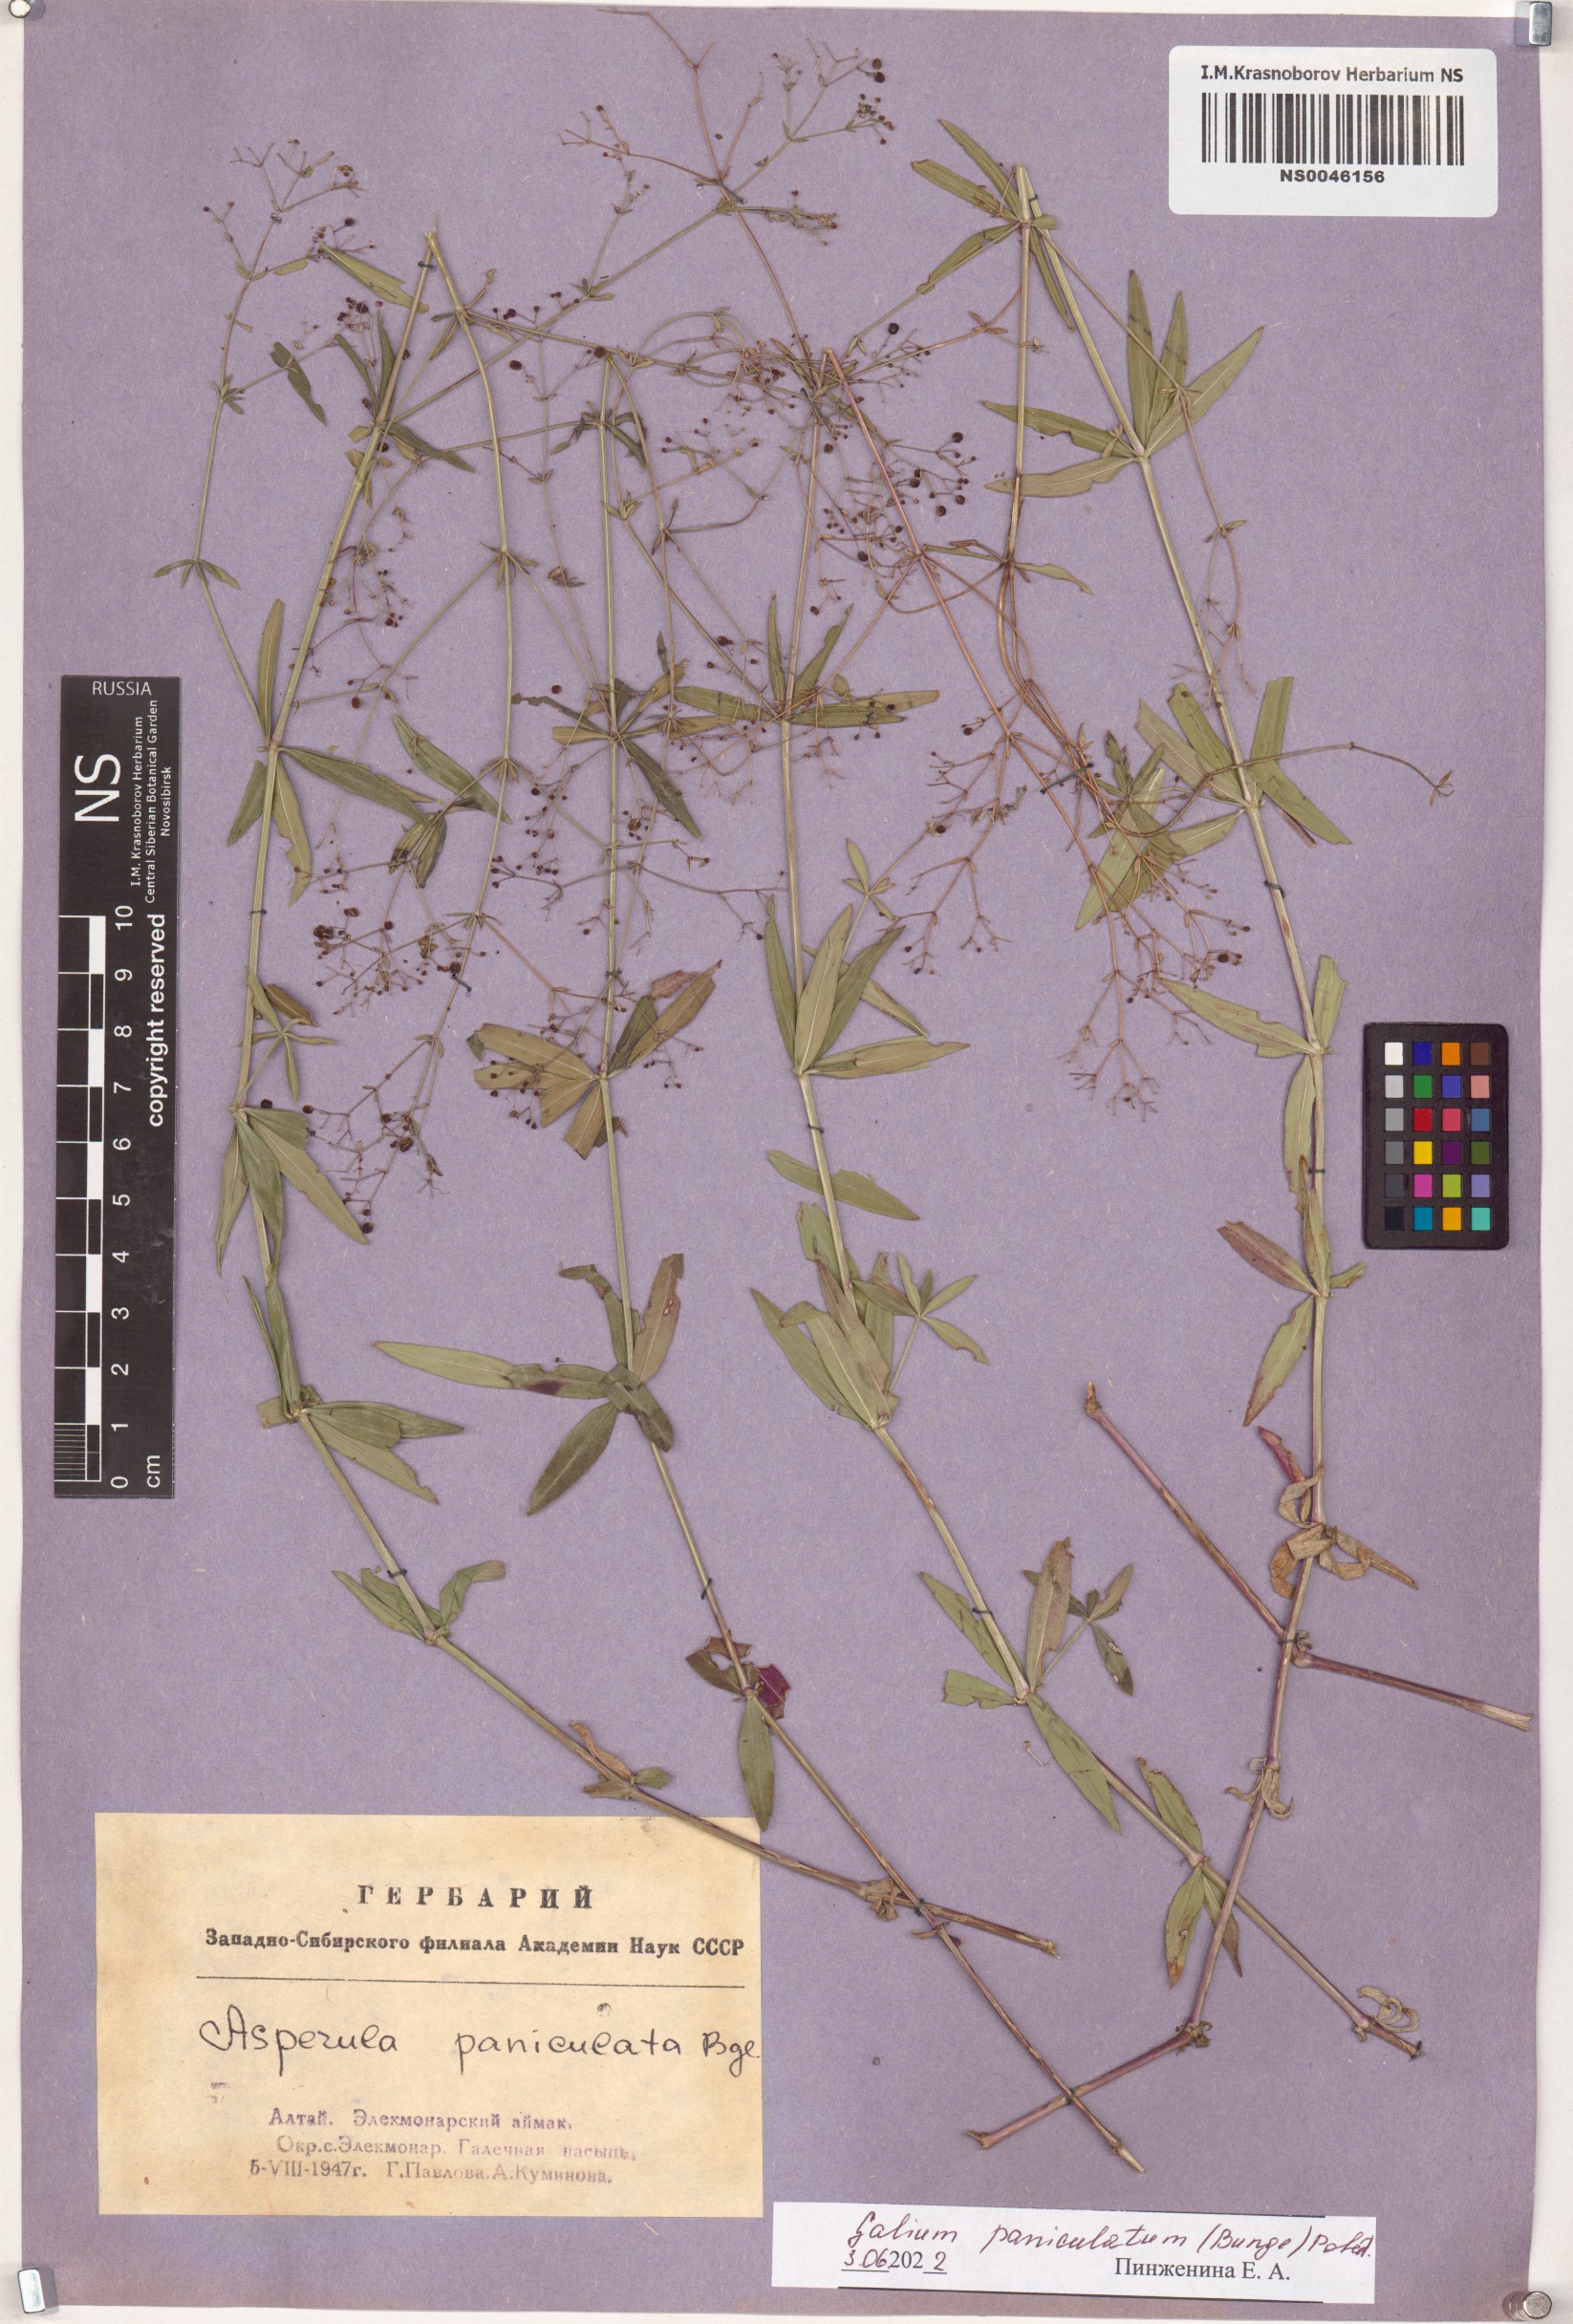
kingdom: Plantae
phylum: Tracheophyta
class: Magnoliopsida
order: Gentianales
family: Rubiaceae
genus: Galium
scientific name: Galium paniculatum
